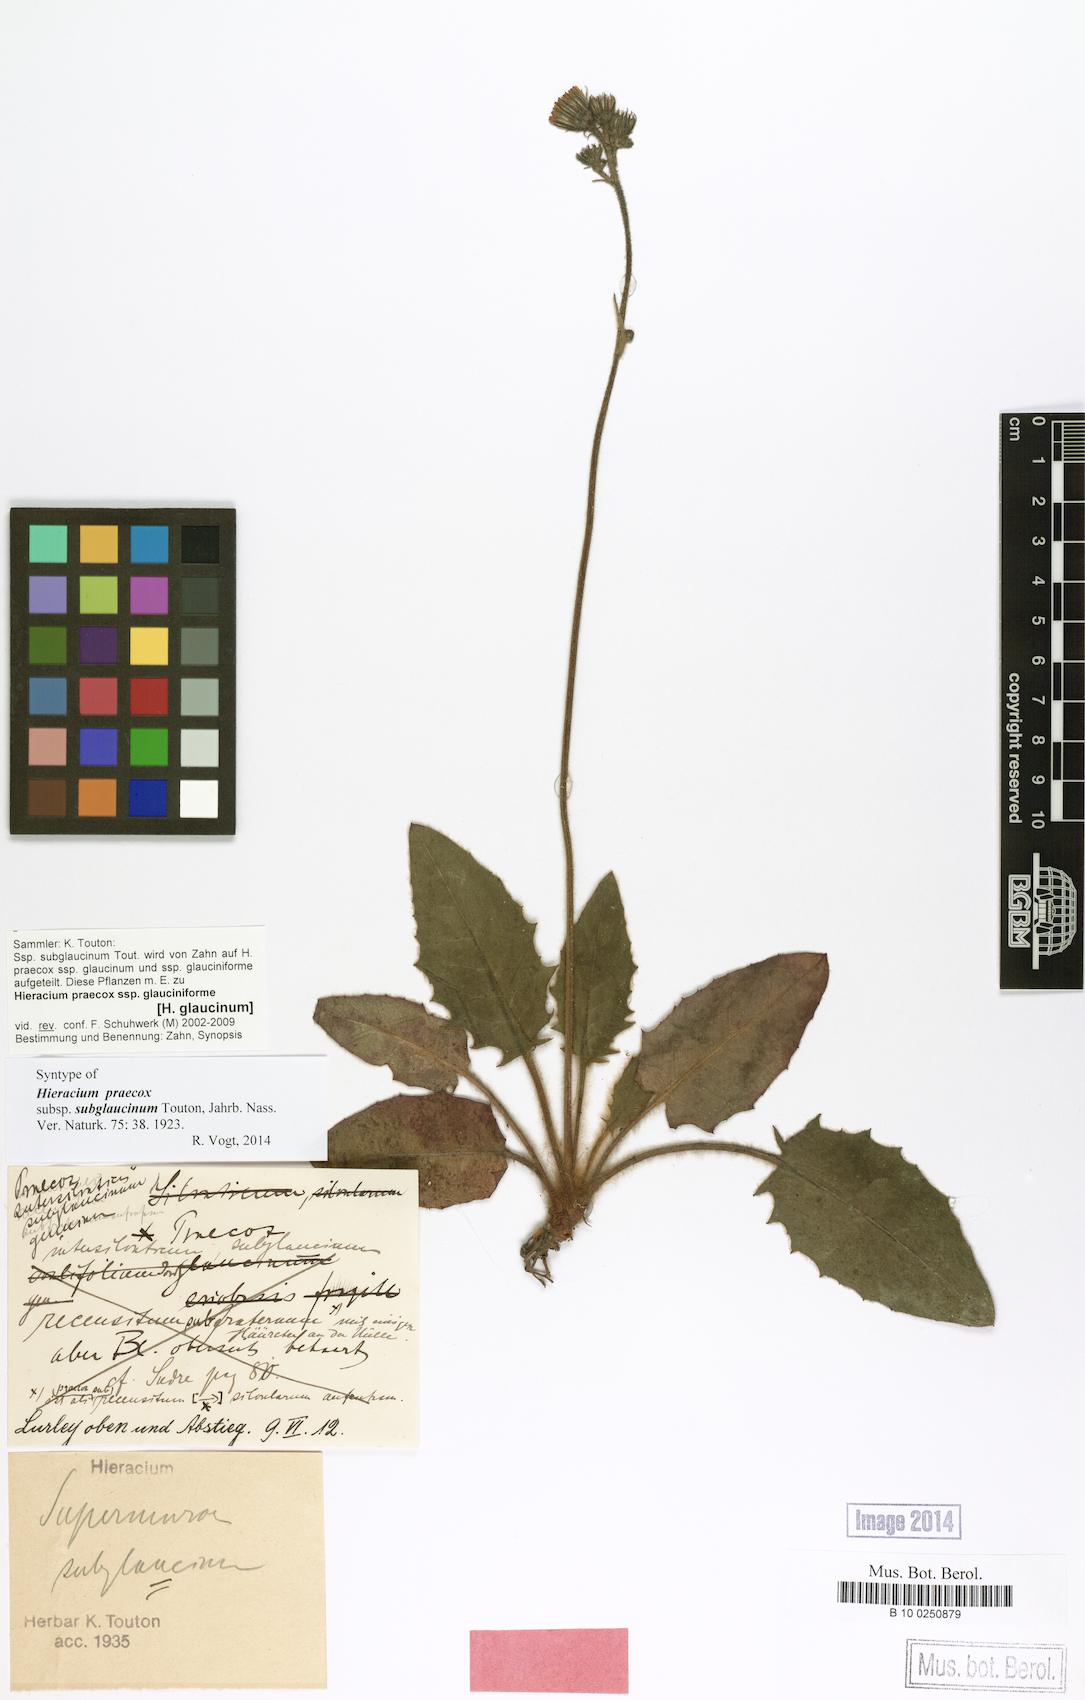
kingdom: Plantae
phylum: Tracheophyta
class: Magnoliopsida
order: Asterales
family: Asteraceae
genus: Hieracium
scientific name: Hieracium glaucinum
